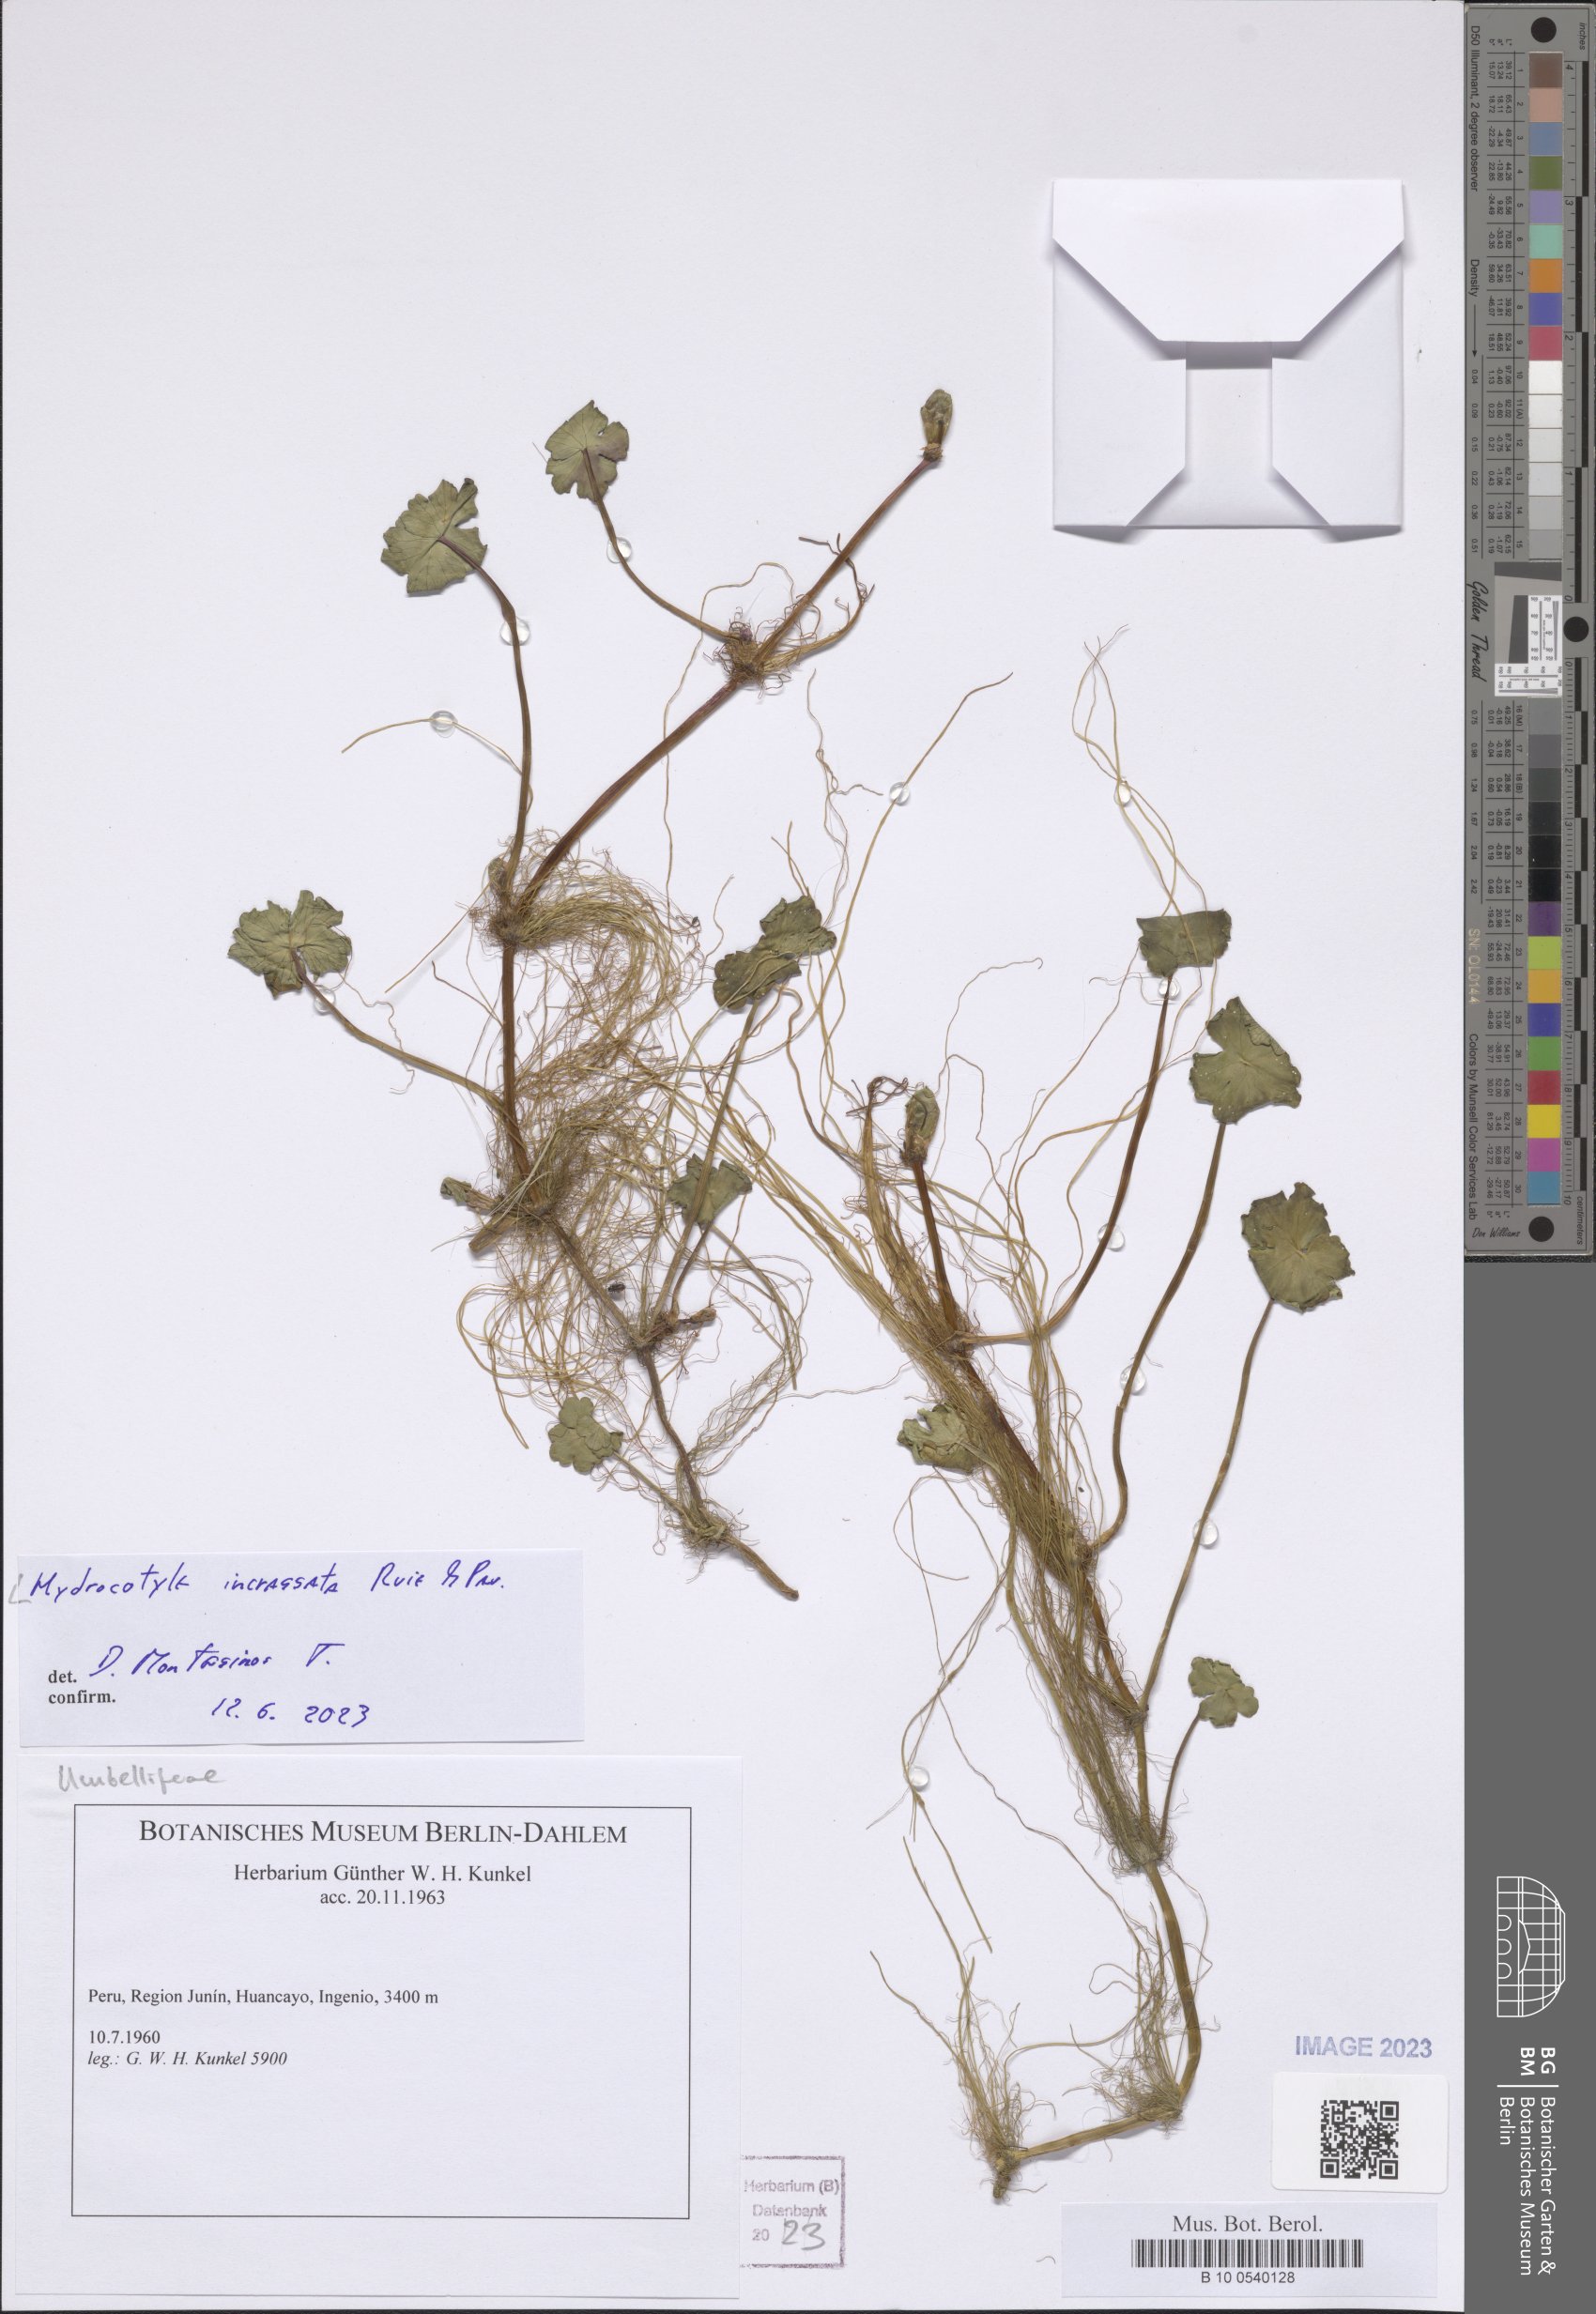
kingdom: Plantae
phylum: Tracheophyta
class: Magnoliopsida
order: Apiales
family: Araliaceae
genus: Hydrocotyle
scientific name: Hydrocotyle incrassata
